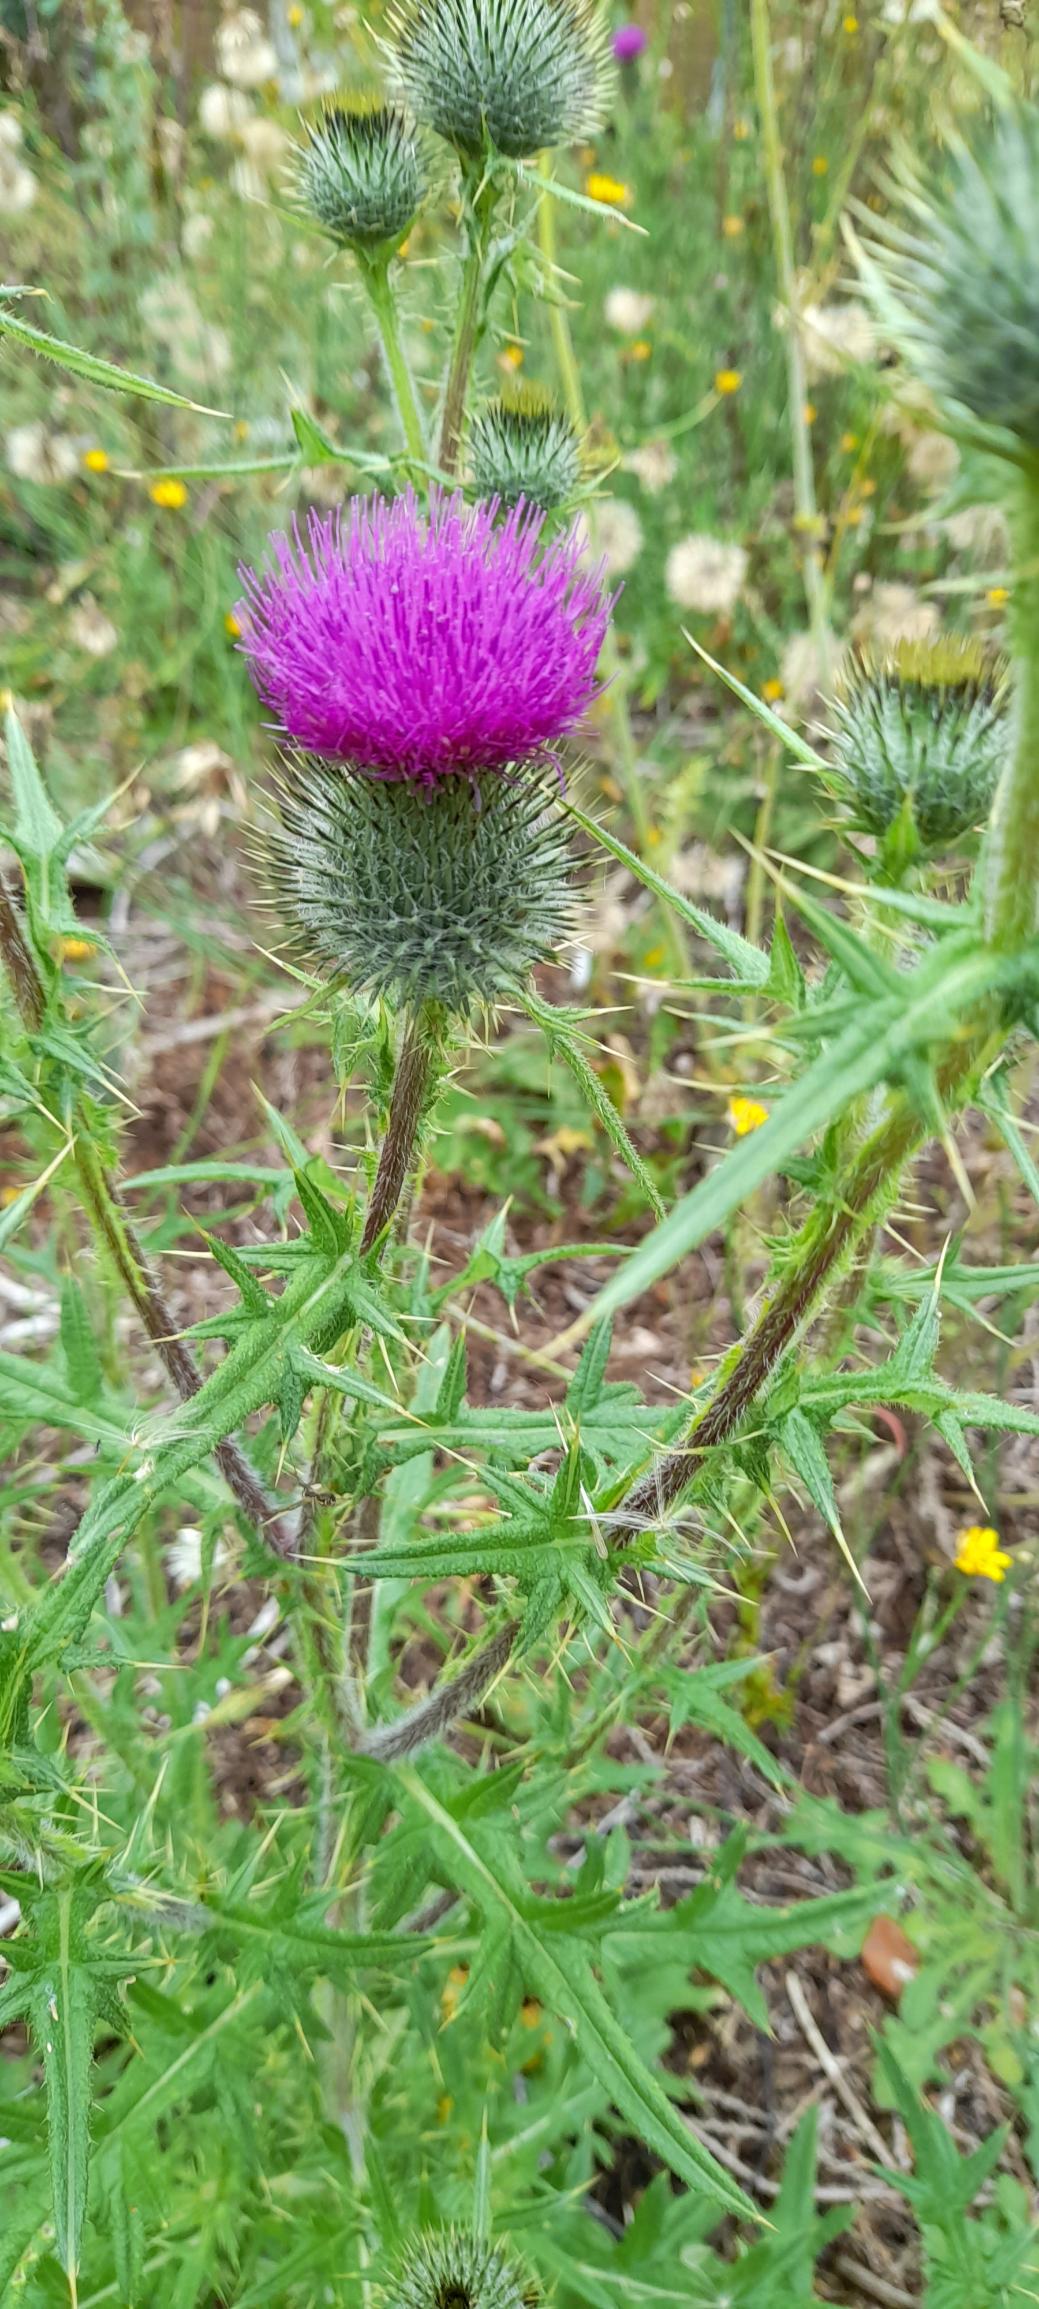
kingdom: Plantae
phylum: Tracheophyta
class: Magnoliopsida
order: Asterales
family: Asteraceae
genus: Cirsium
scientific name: Cirsium vulgare
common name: Horse-tidsel
